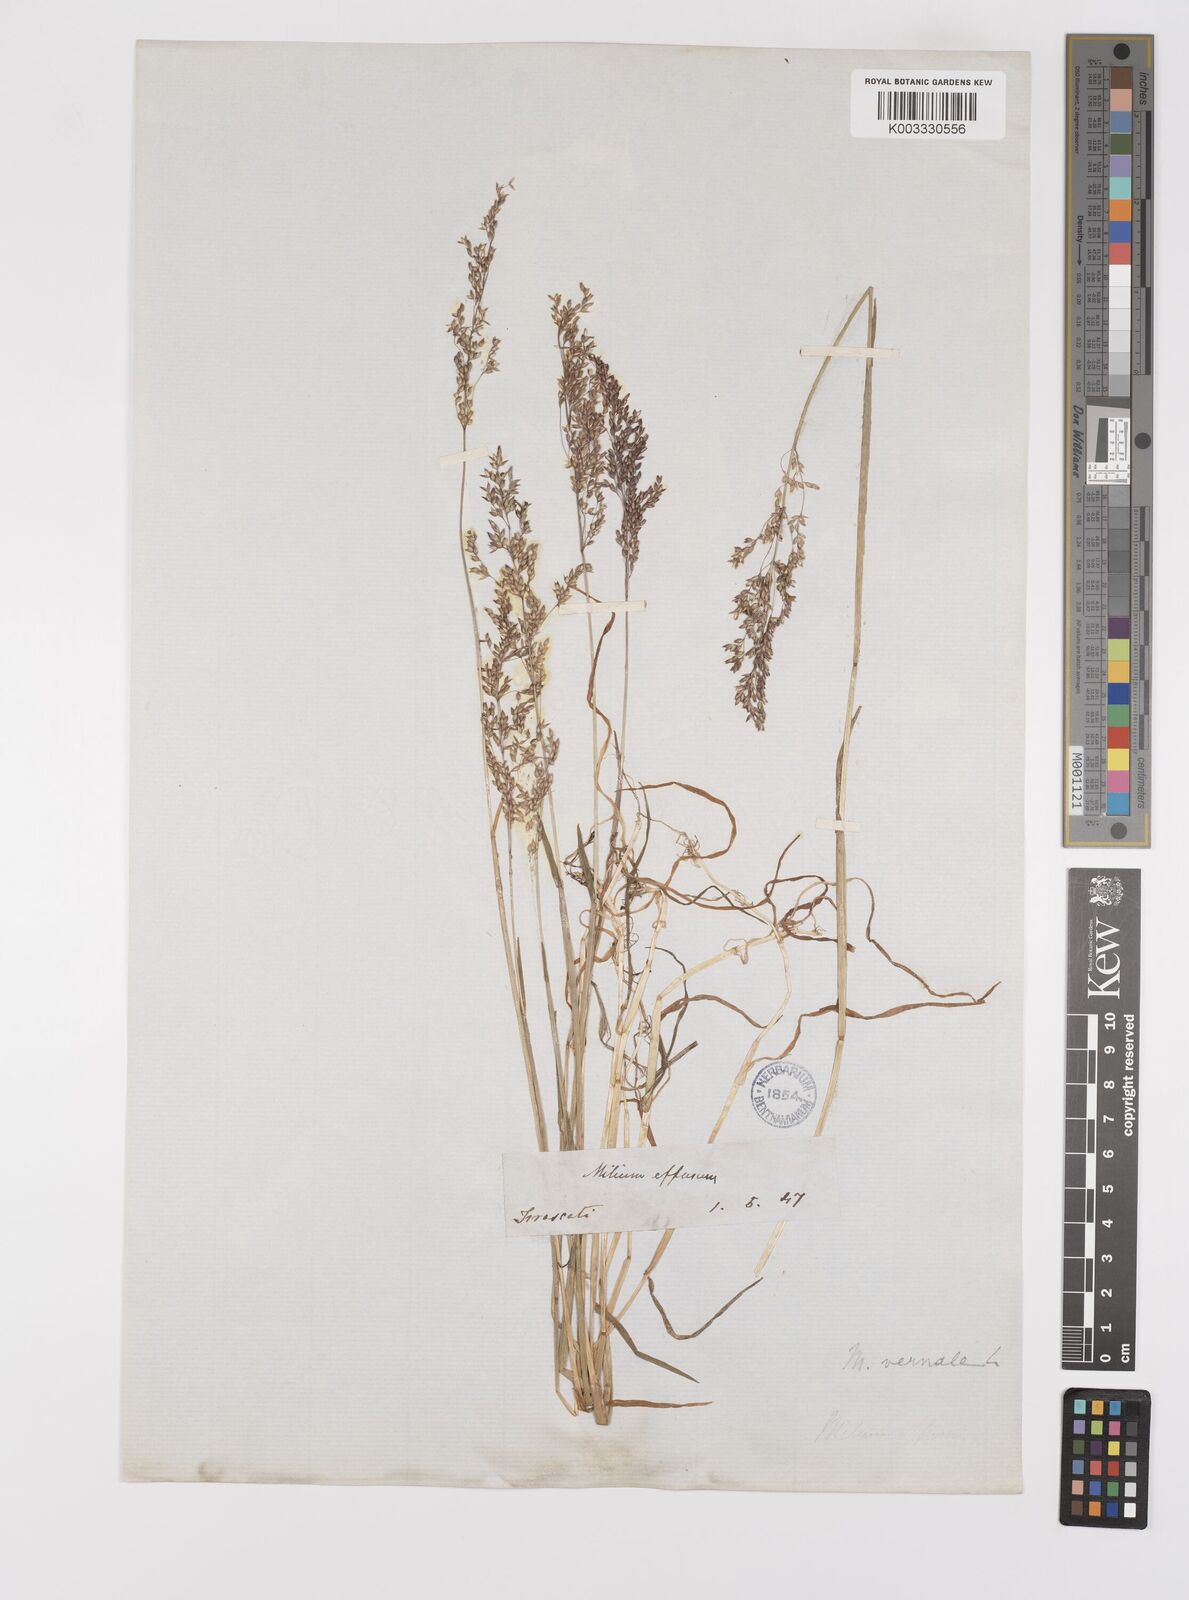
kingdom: Plantae
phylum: Tracheophyta
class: Liliopsida
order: Poales
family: Poaceae
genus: Milium
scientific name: Milium vernale
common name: Early millet
